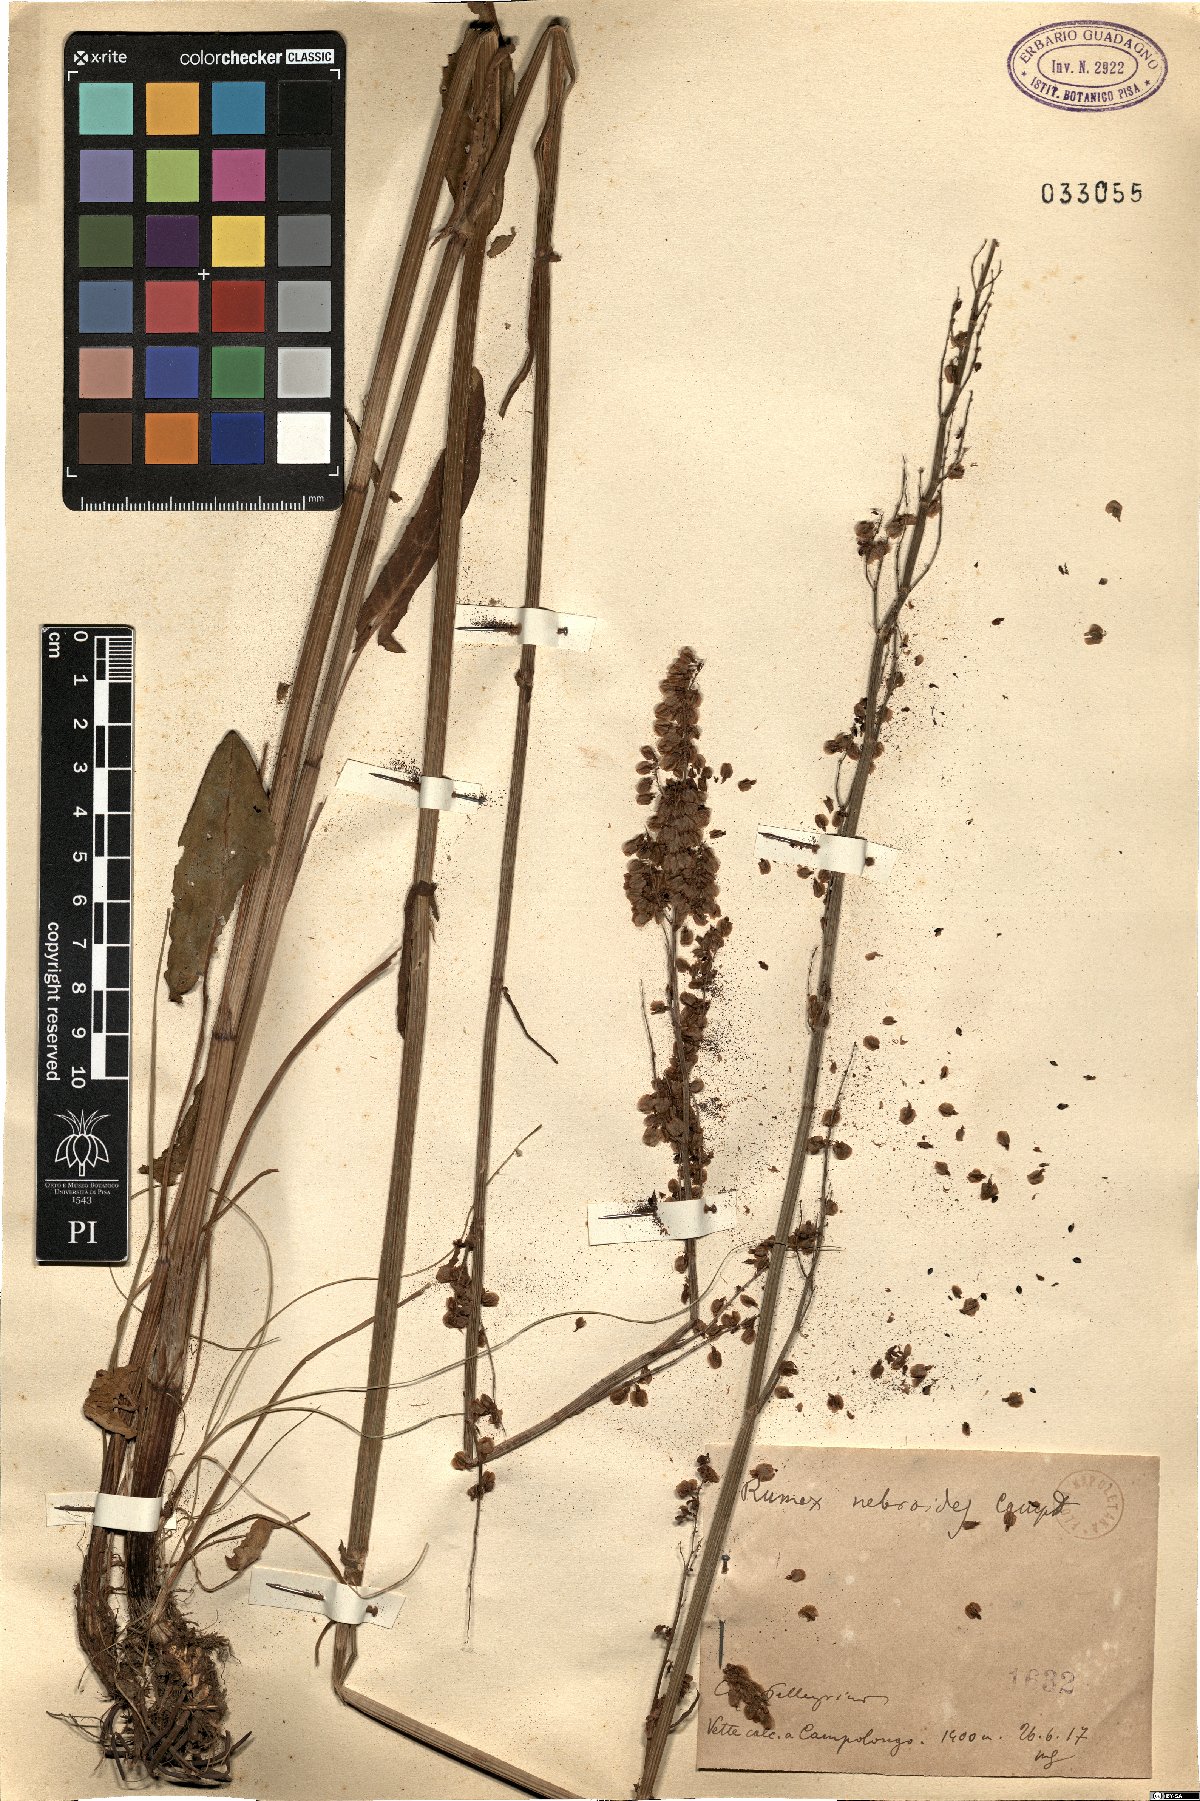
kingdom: Plantae
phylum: Tracheophyta
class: Magnoliopsida
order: Caryophyllales
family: Polygonaceae
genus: Rumex
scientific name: Rumex nebroides
